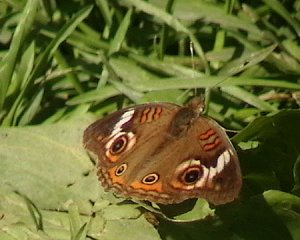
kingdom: Animalia
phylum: Arthropoda
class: Insecta
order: Lepidoptera
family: Nymphalidae
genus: Junonia
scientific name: Junonia coenia
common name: Common Buckeye
